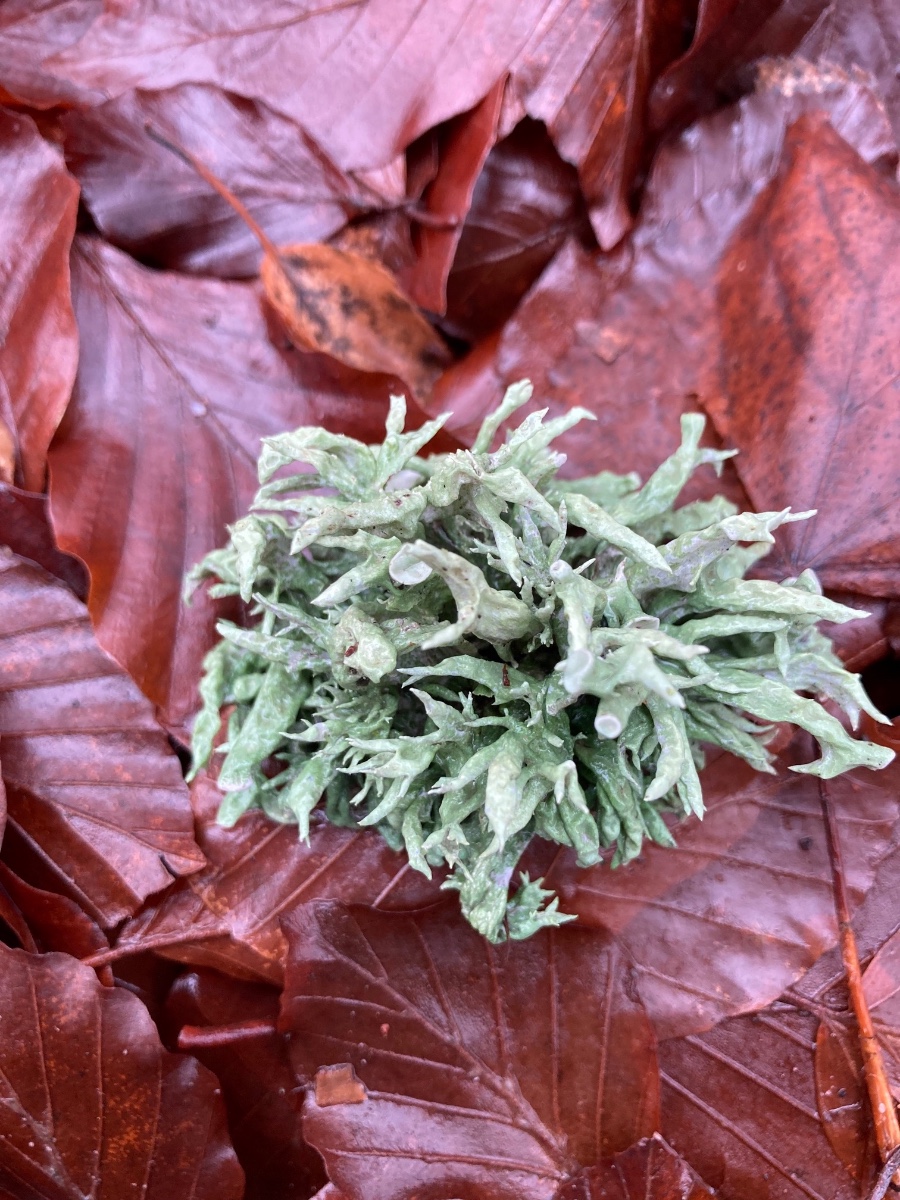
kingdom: Fungi
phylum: Ascomycota
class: Lecanoromycetes
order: Lecanorales
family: Ramalinaceae
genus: Ramalina
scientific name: Ramalina fastigiata
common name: tue-grenlav
